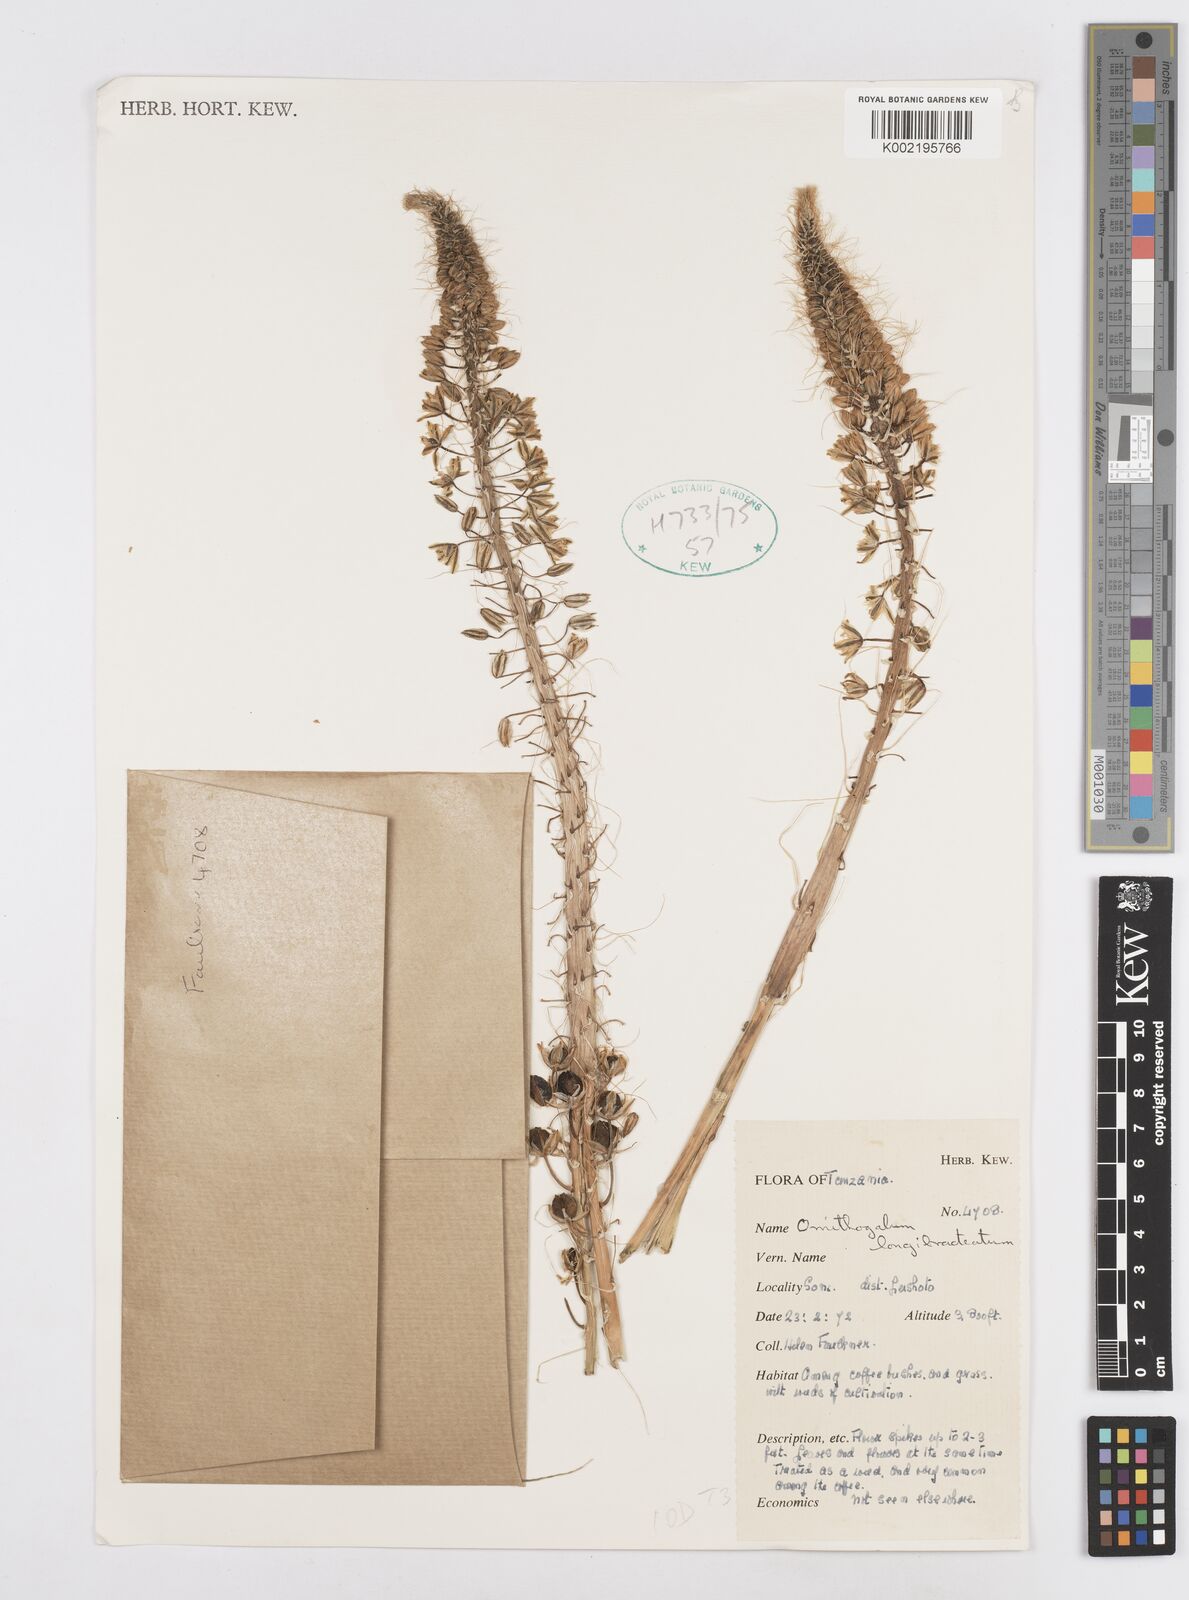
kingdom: Plantae
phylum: Tracheophyta
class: Liliopsida
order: Asparagales
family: Asparagaceae
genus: Albuca
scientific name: Albuca virens
